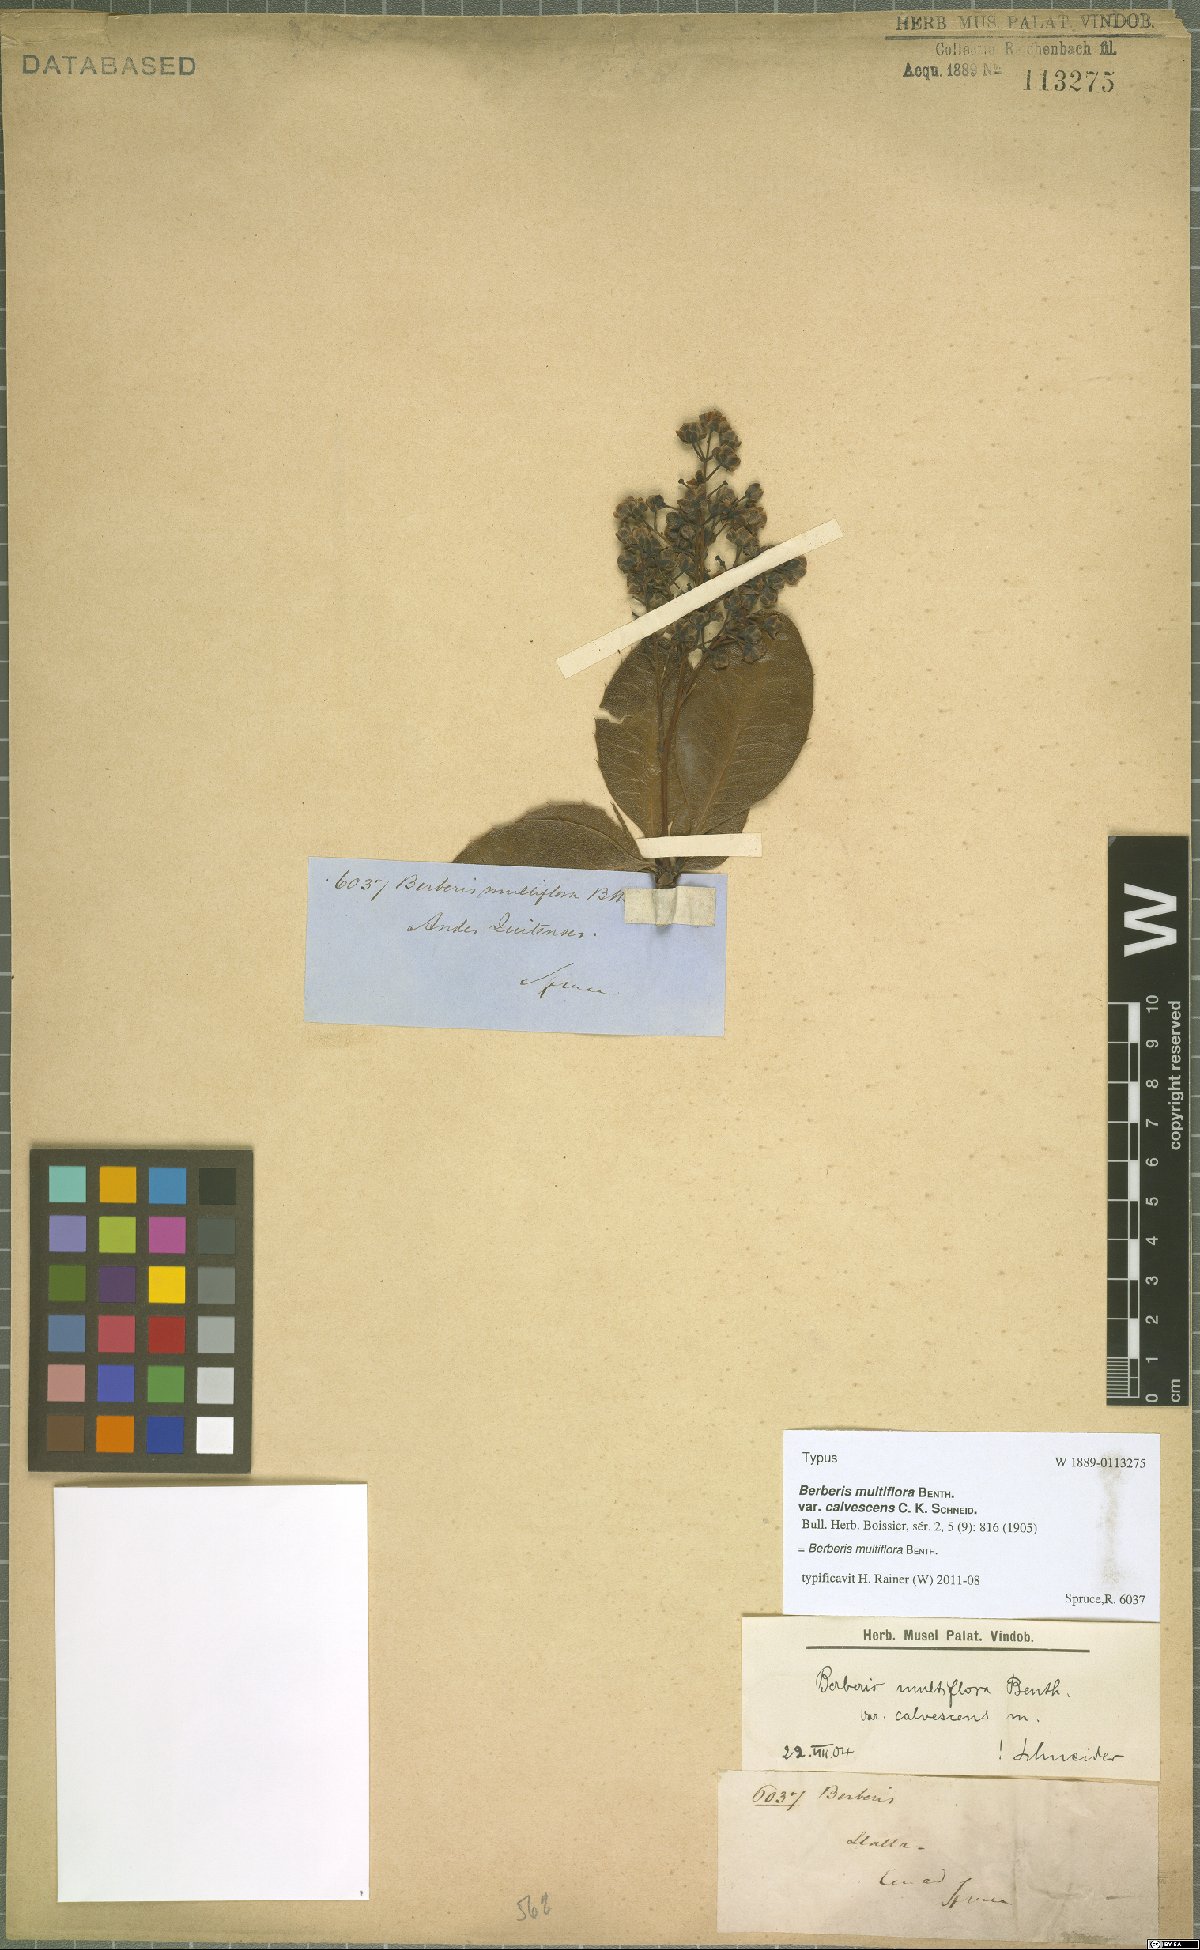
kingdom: Plantae
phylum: Tracheophyta
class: Magnoliopsida
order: Ranunculales
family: Berberidaceae
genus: Berberis
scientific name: Berberis multiflora
